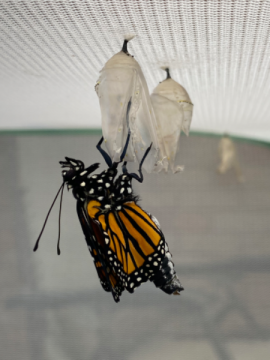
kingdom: Animalia
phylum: Arthropoda
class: Insecta
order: Lepidoptera
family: Nymphalidae
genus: Danaus
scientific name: Danaus plexippus
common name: Monarch
